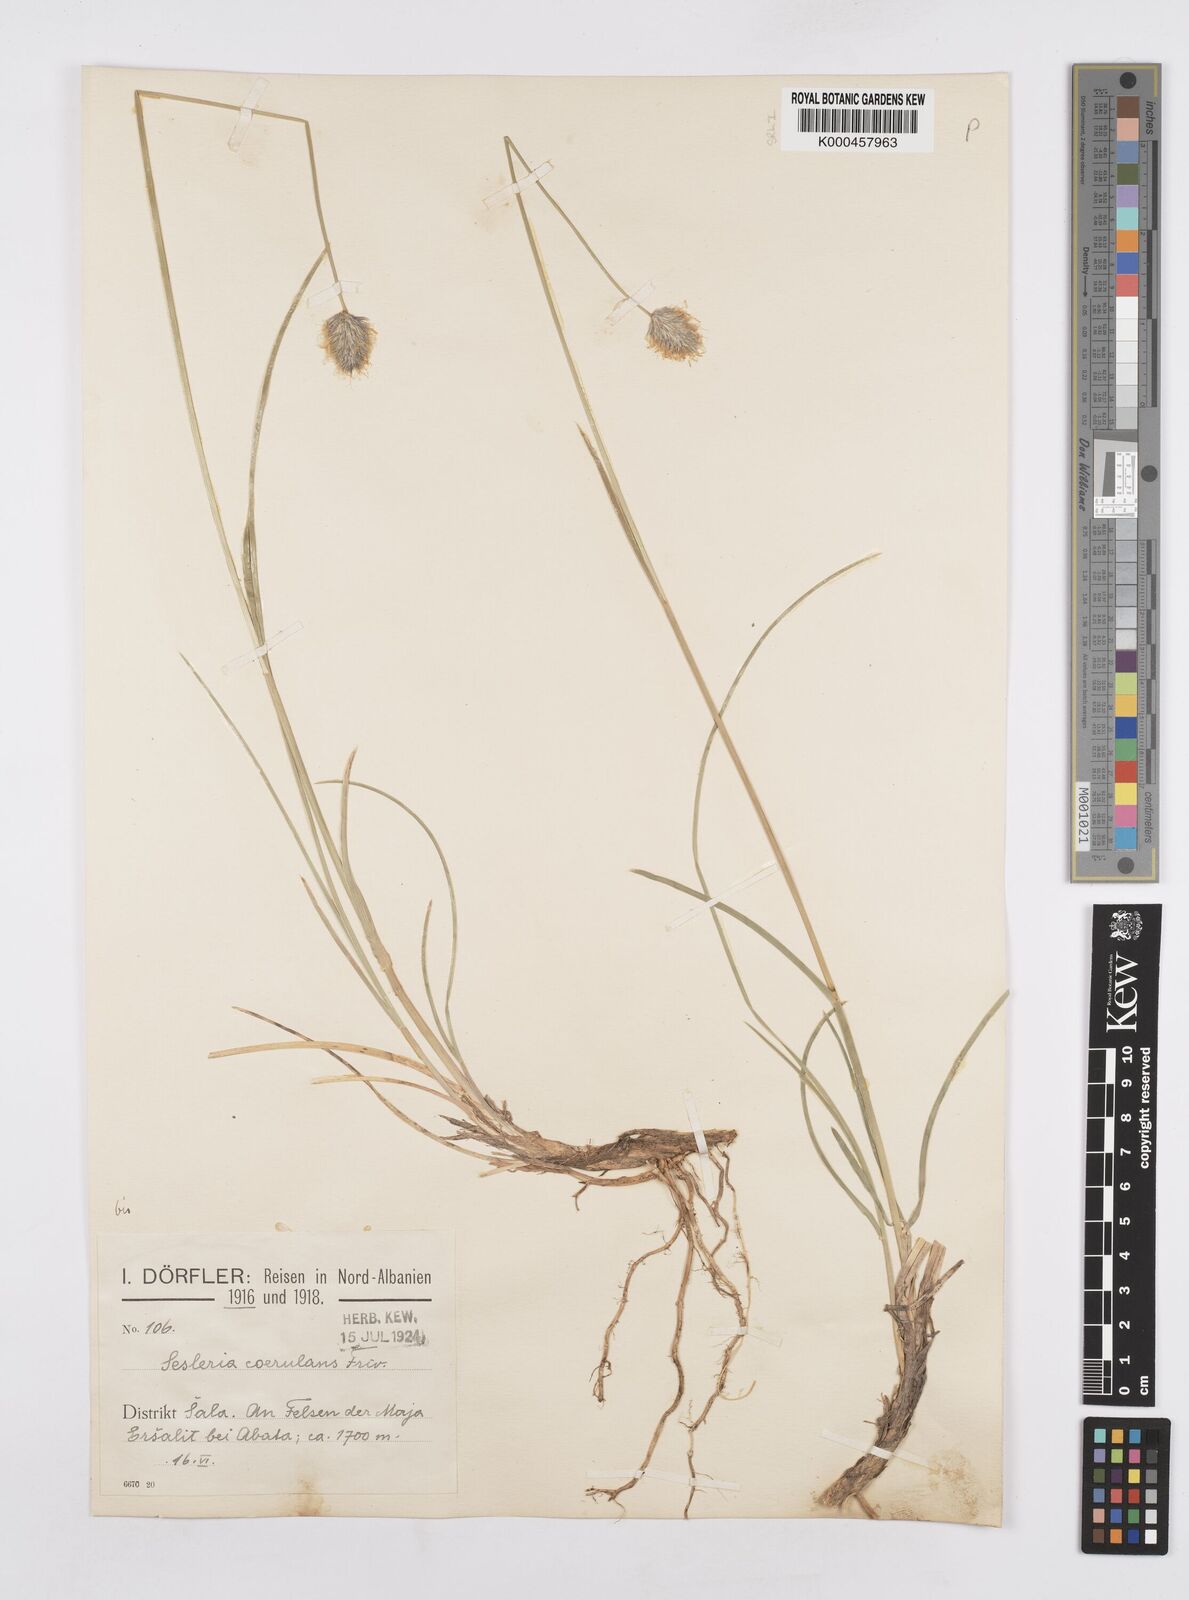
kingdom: Plantae
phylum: Tracheophyta
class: Liliopsida
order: Poales
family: Poaceae
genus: Sesleria
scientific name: Sesleria coerulans
